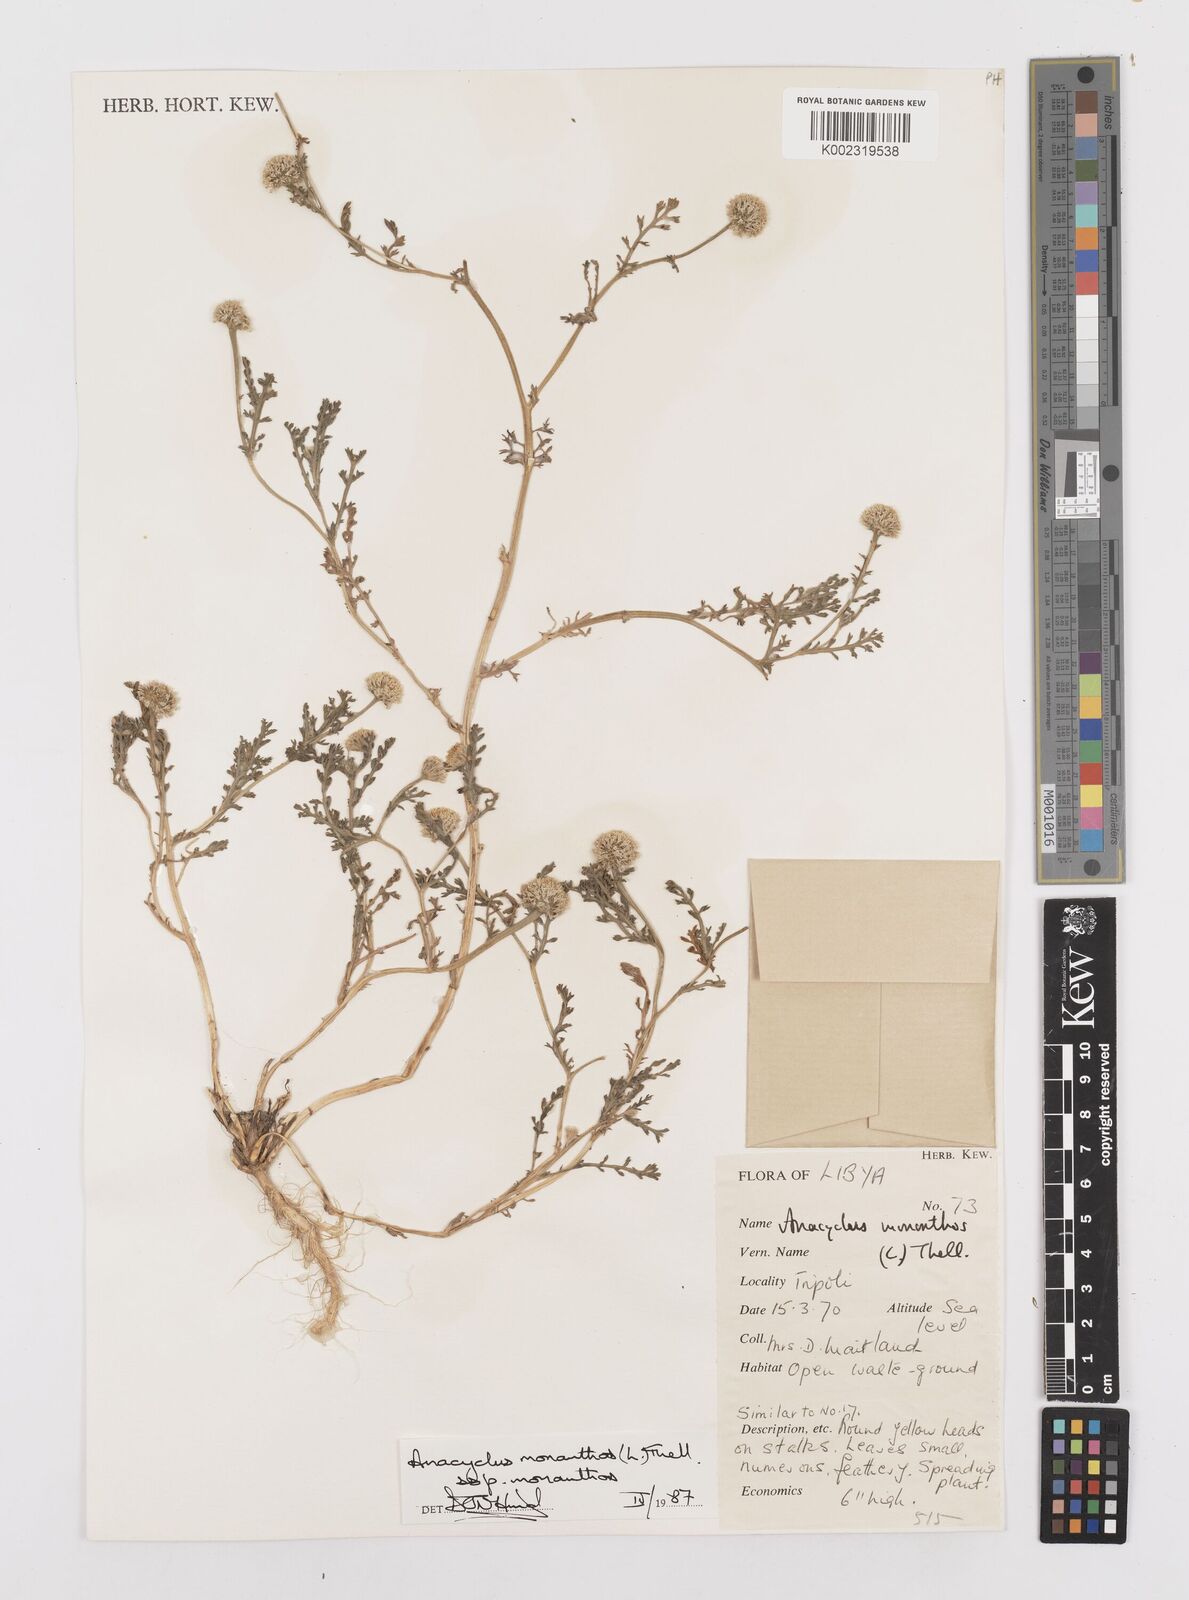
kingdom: Plantae
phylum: Tracheophyta
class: Magnoliopsida
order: Asterales
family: Asteraceae
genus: Anacyclus
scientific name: Anacyclus monanthos
